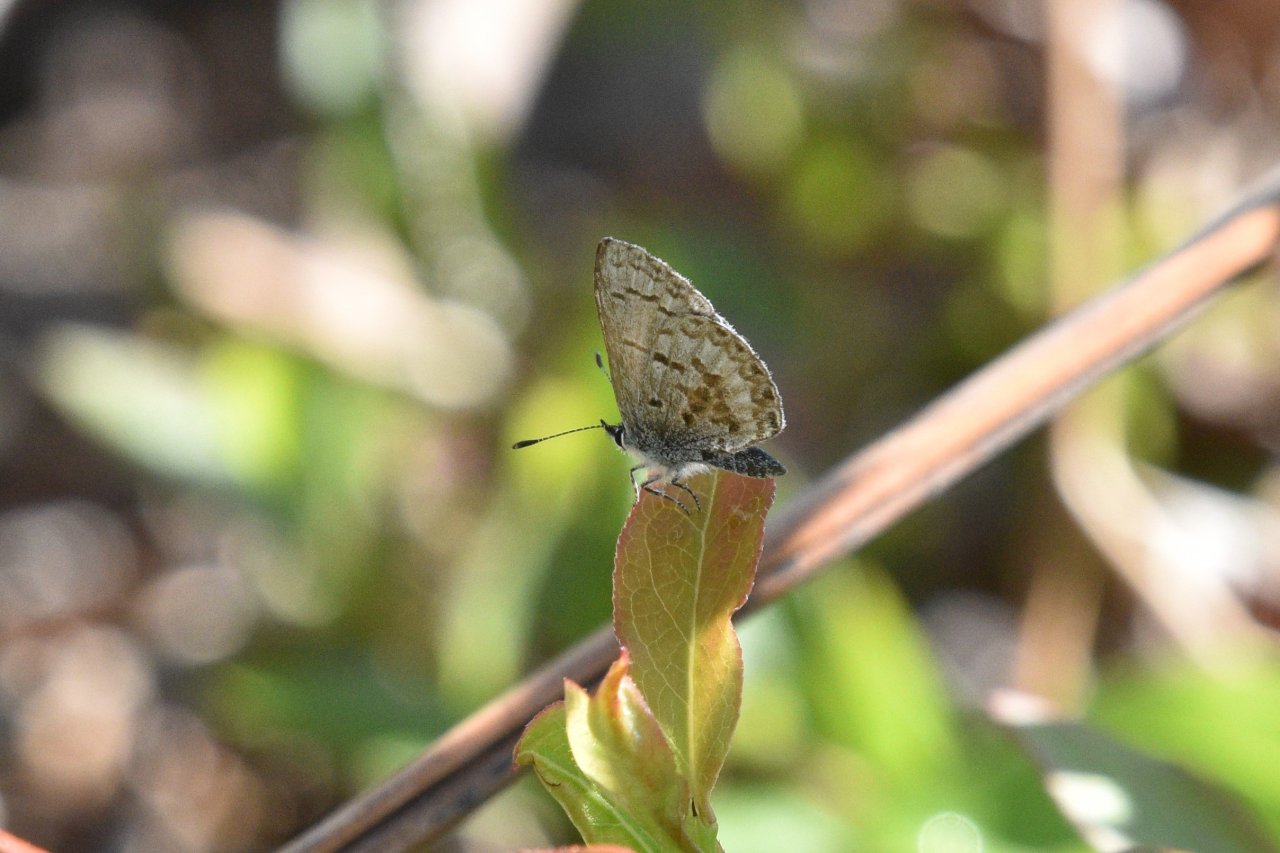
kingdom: Animalia
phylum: Arthropoda
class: Insecta
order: Lepidoptera
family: Lycaenidae
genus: Celastrina
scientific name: Celastrina lucia
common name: Northern Spring Azure
